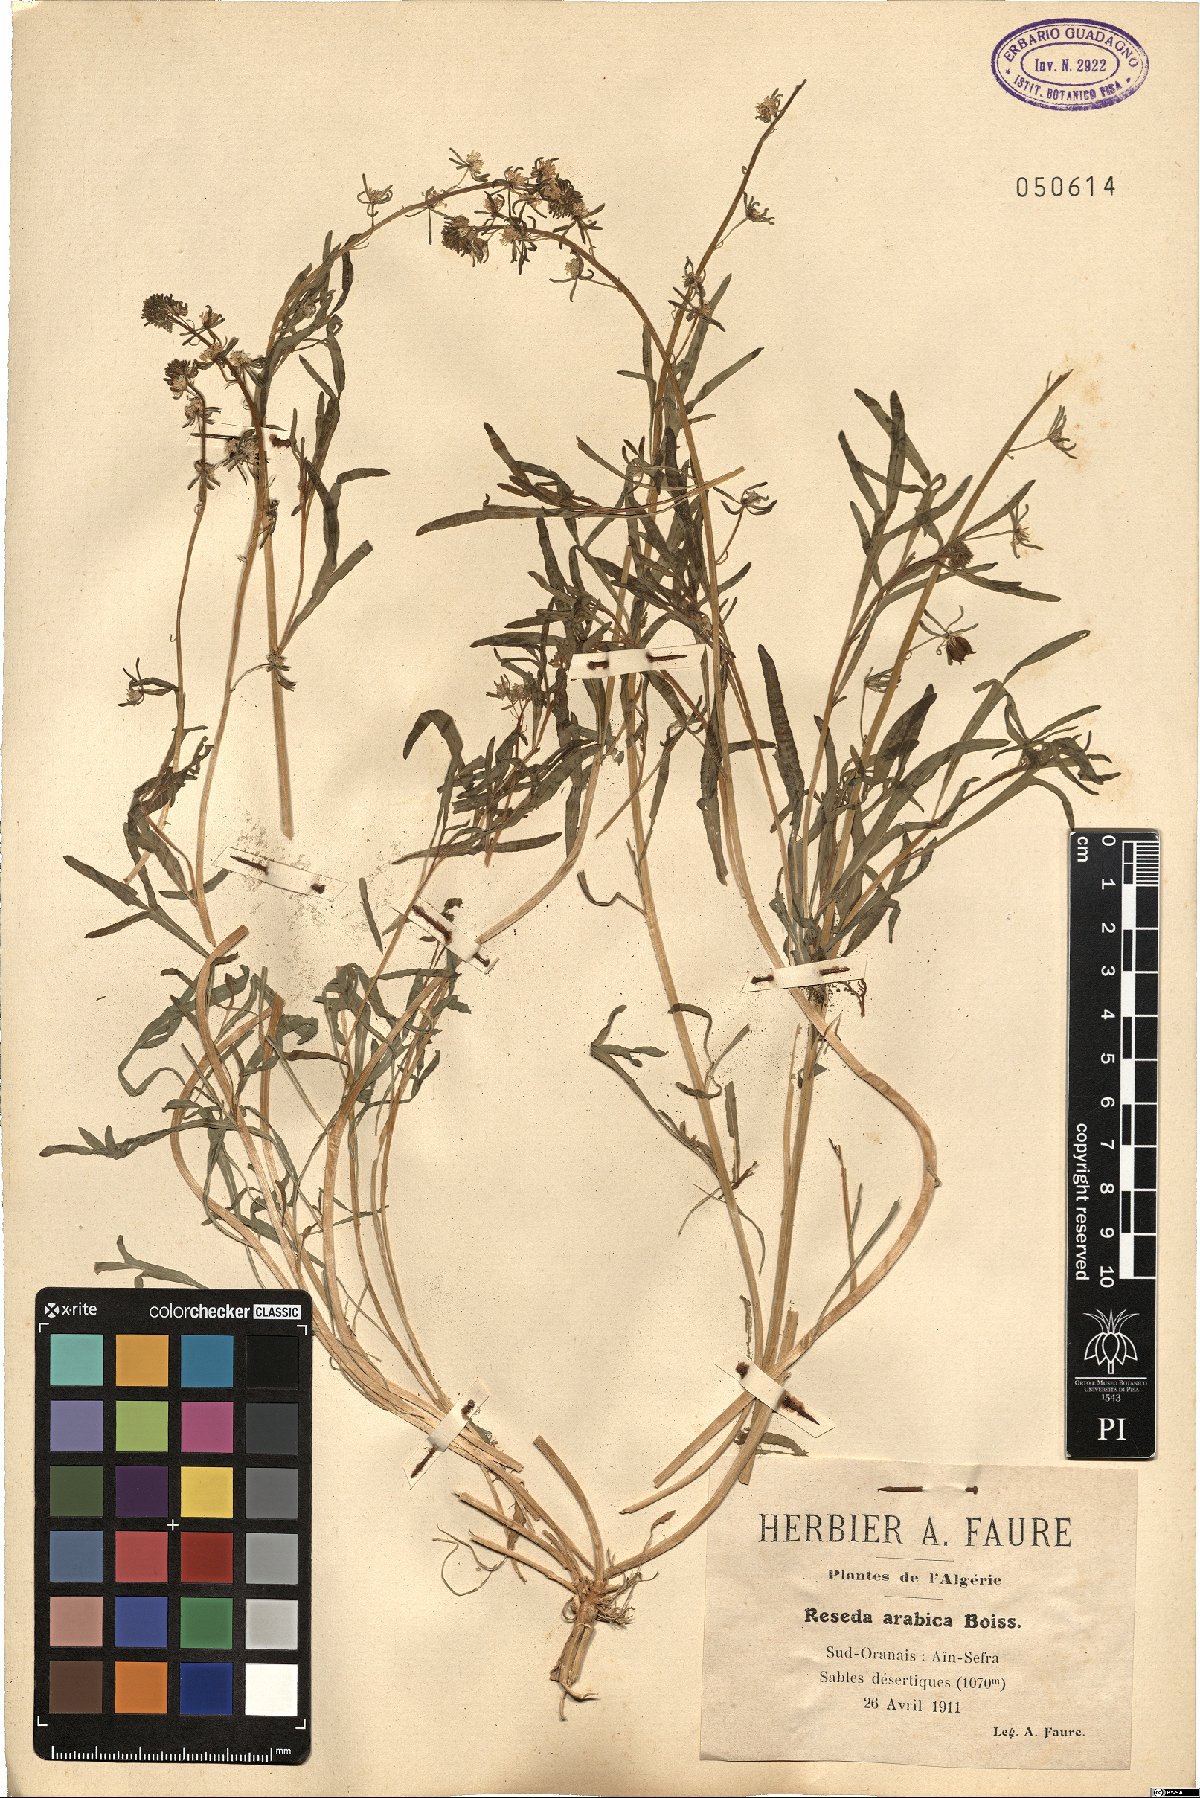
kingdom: Plantae
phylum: Tracheophyta
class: Magnoliopsida
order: Brassicales
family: Resedaceae
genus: Reseda
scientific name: Reseda arabica
